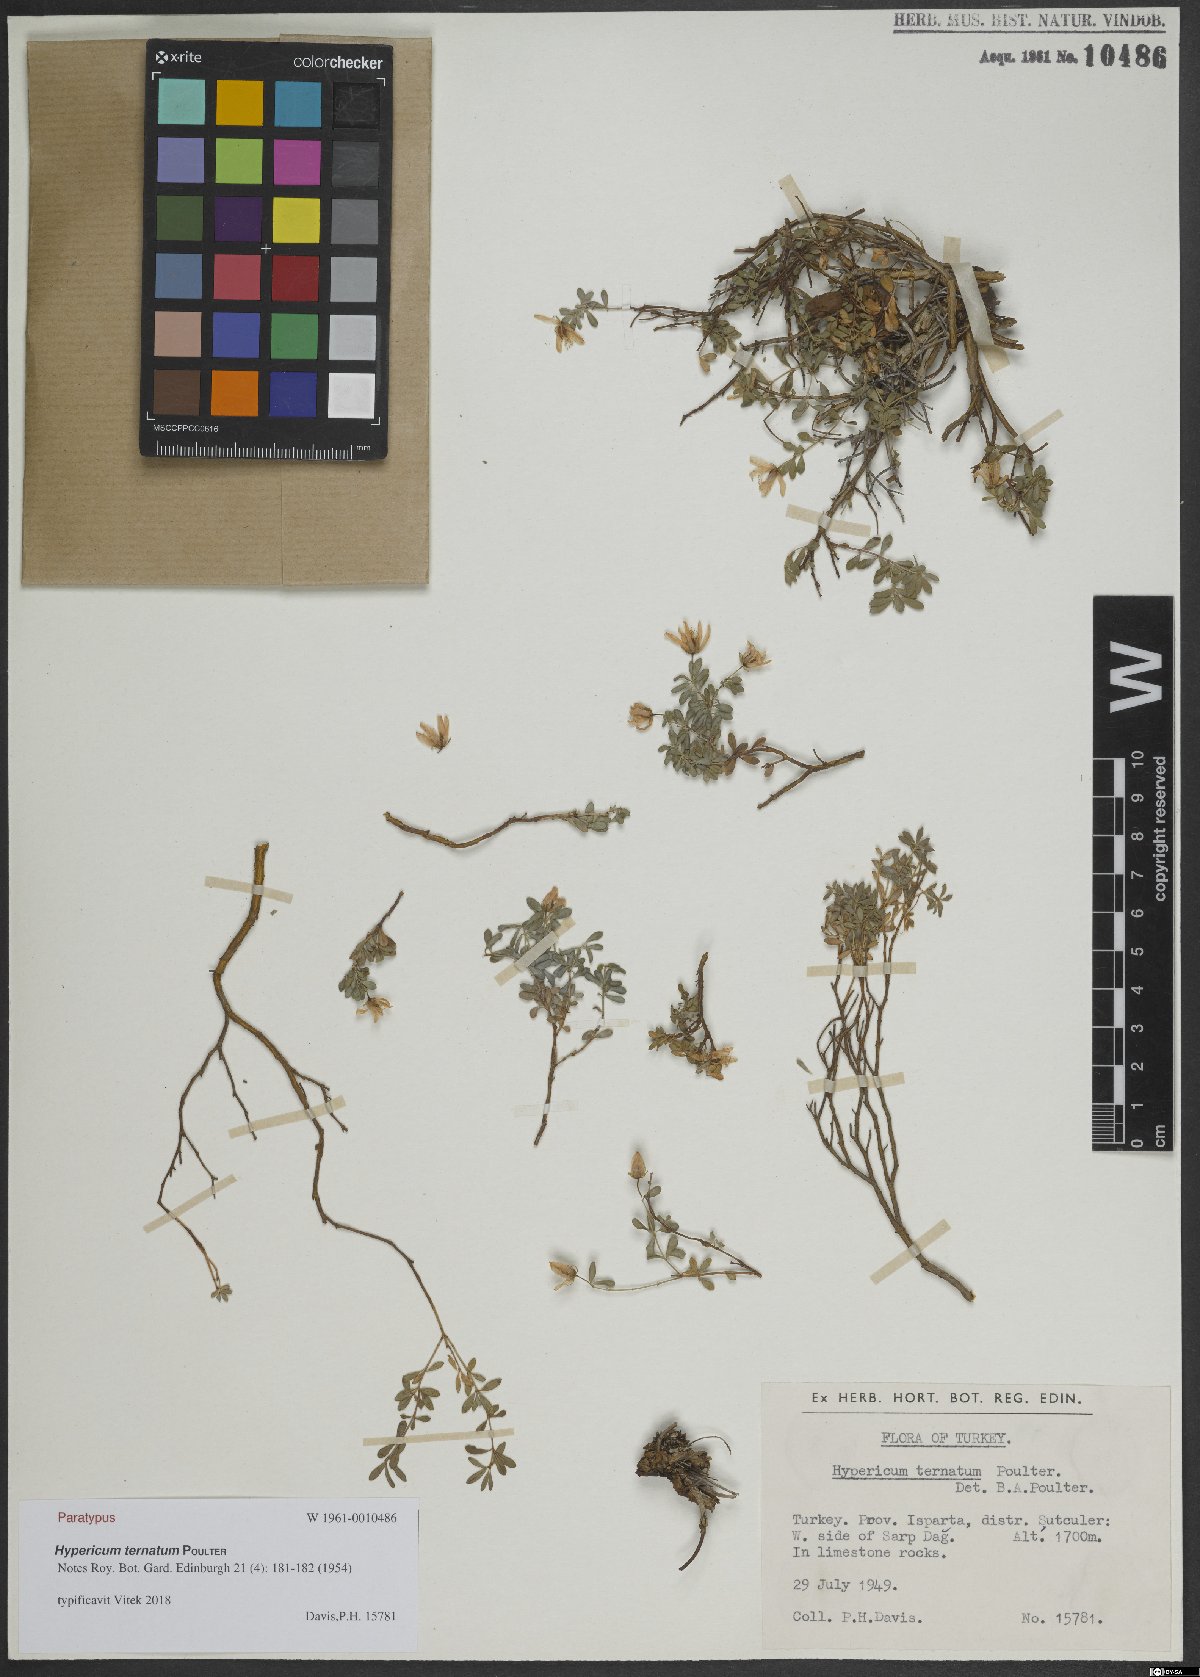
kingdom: Plantae
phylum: Tracheophyta
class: Magnoliopsida
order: Malpighiales
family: Hypericaceae
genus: Hypericum
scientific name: Hypericum ternatum
